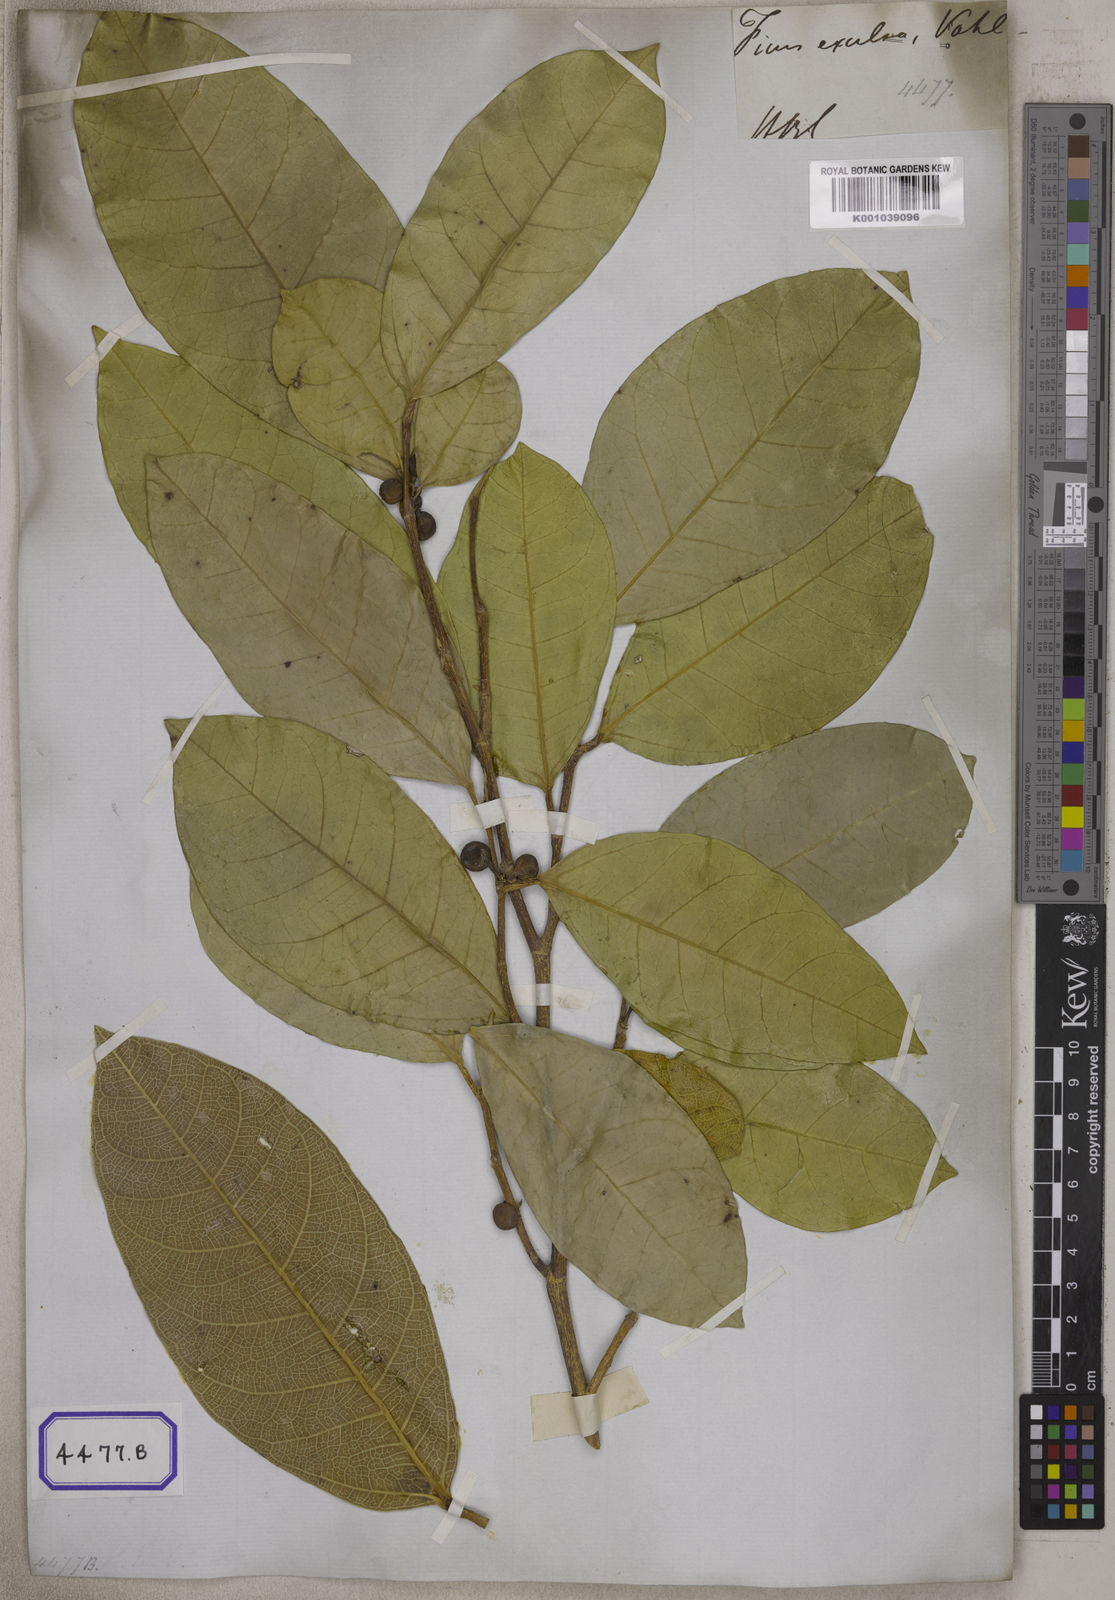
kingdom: Plantae
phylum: Tracheophyta
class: Magnoliopsida
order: Rosales
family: Moraceae
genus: Ficus
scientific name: Ficus tinctoria
